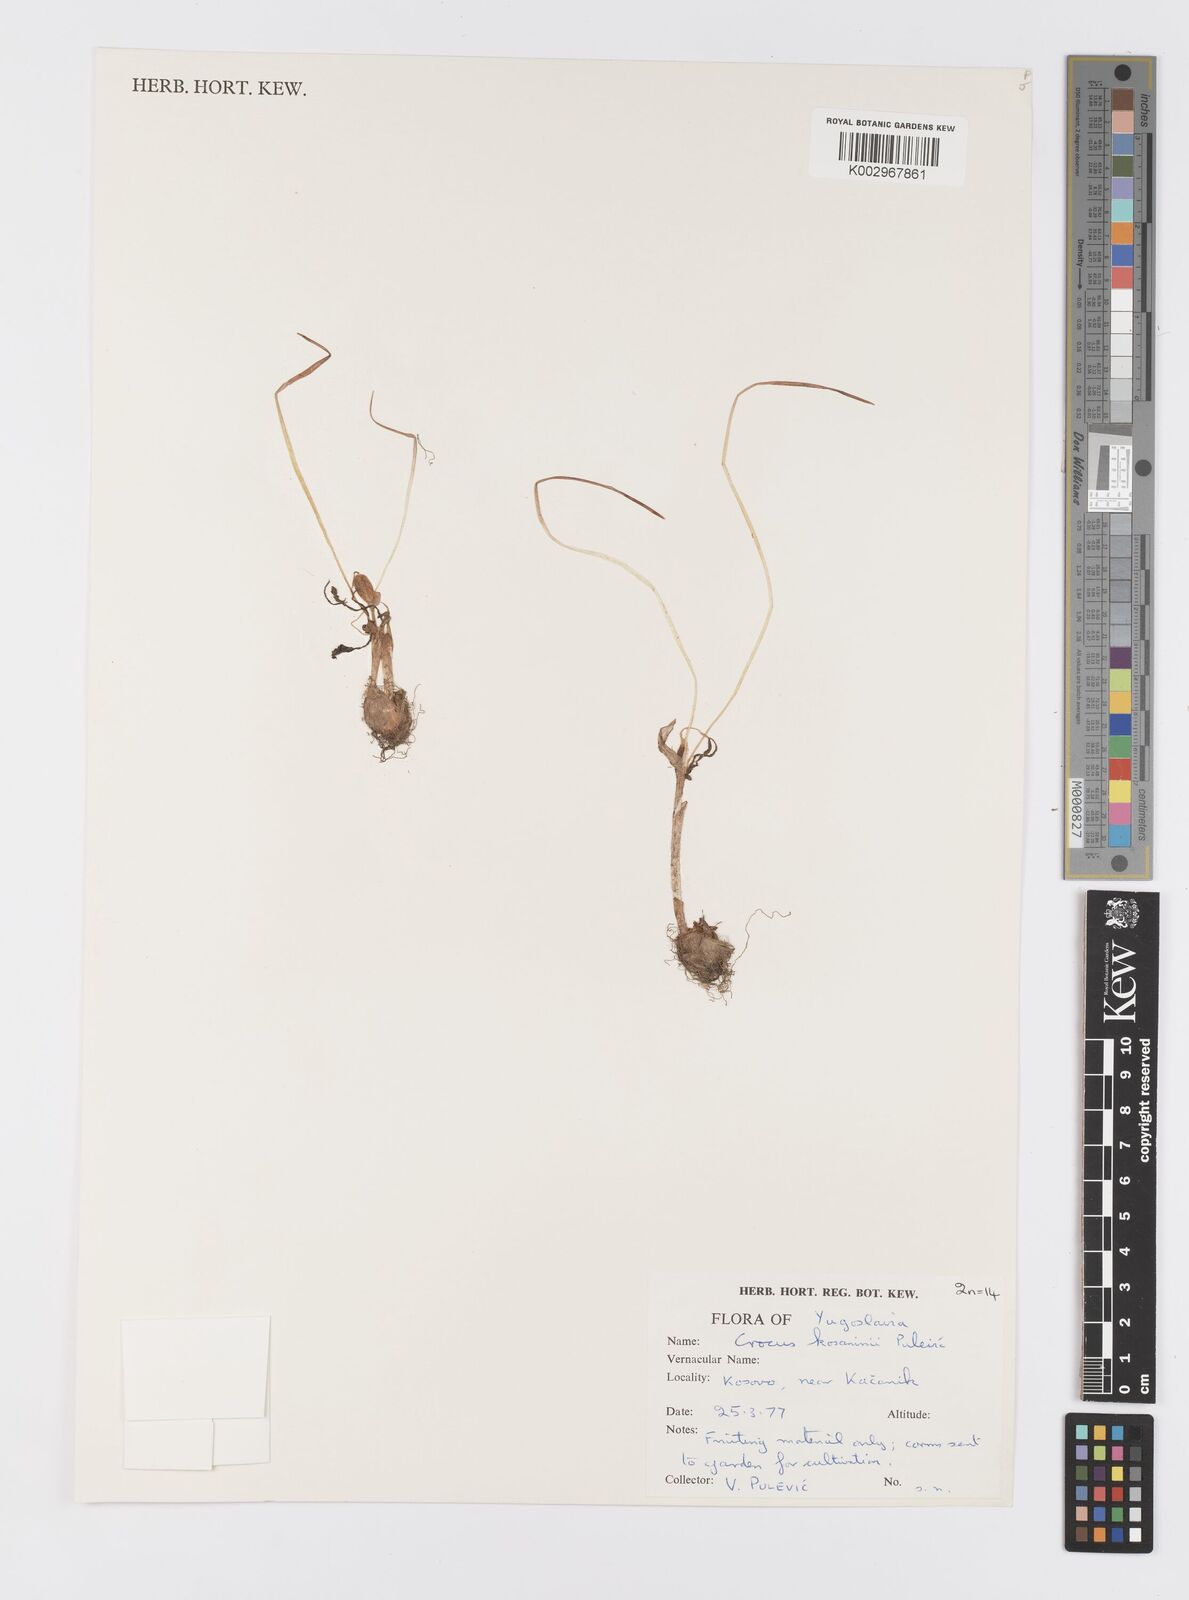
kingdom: Plantae
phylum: Tracheophyta
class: Liliopsida
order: Asparagales
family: Iridaceae
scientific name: Iridaceae
